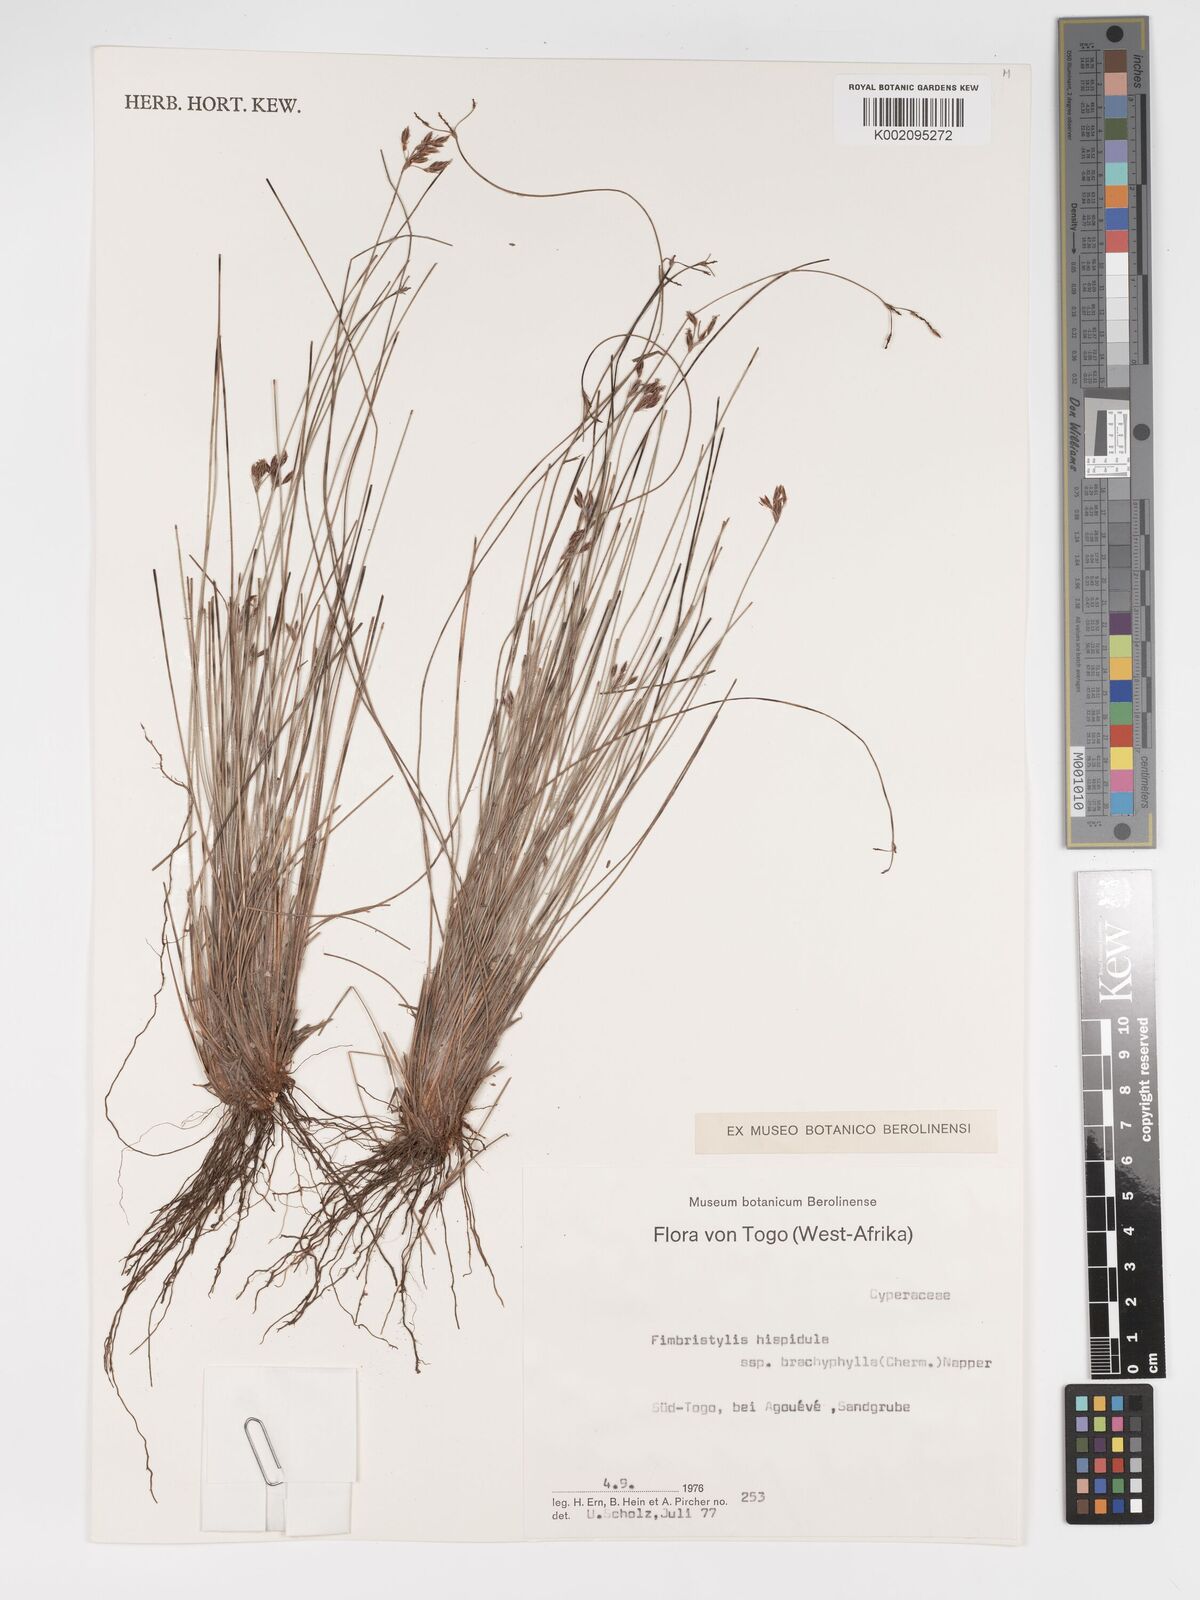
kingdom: Plantae
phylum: Tracheophyta
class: Liliopsida
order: Poales
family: Cyperaceae
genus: Bulbostylis
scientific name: Bulbostylis hispidula
